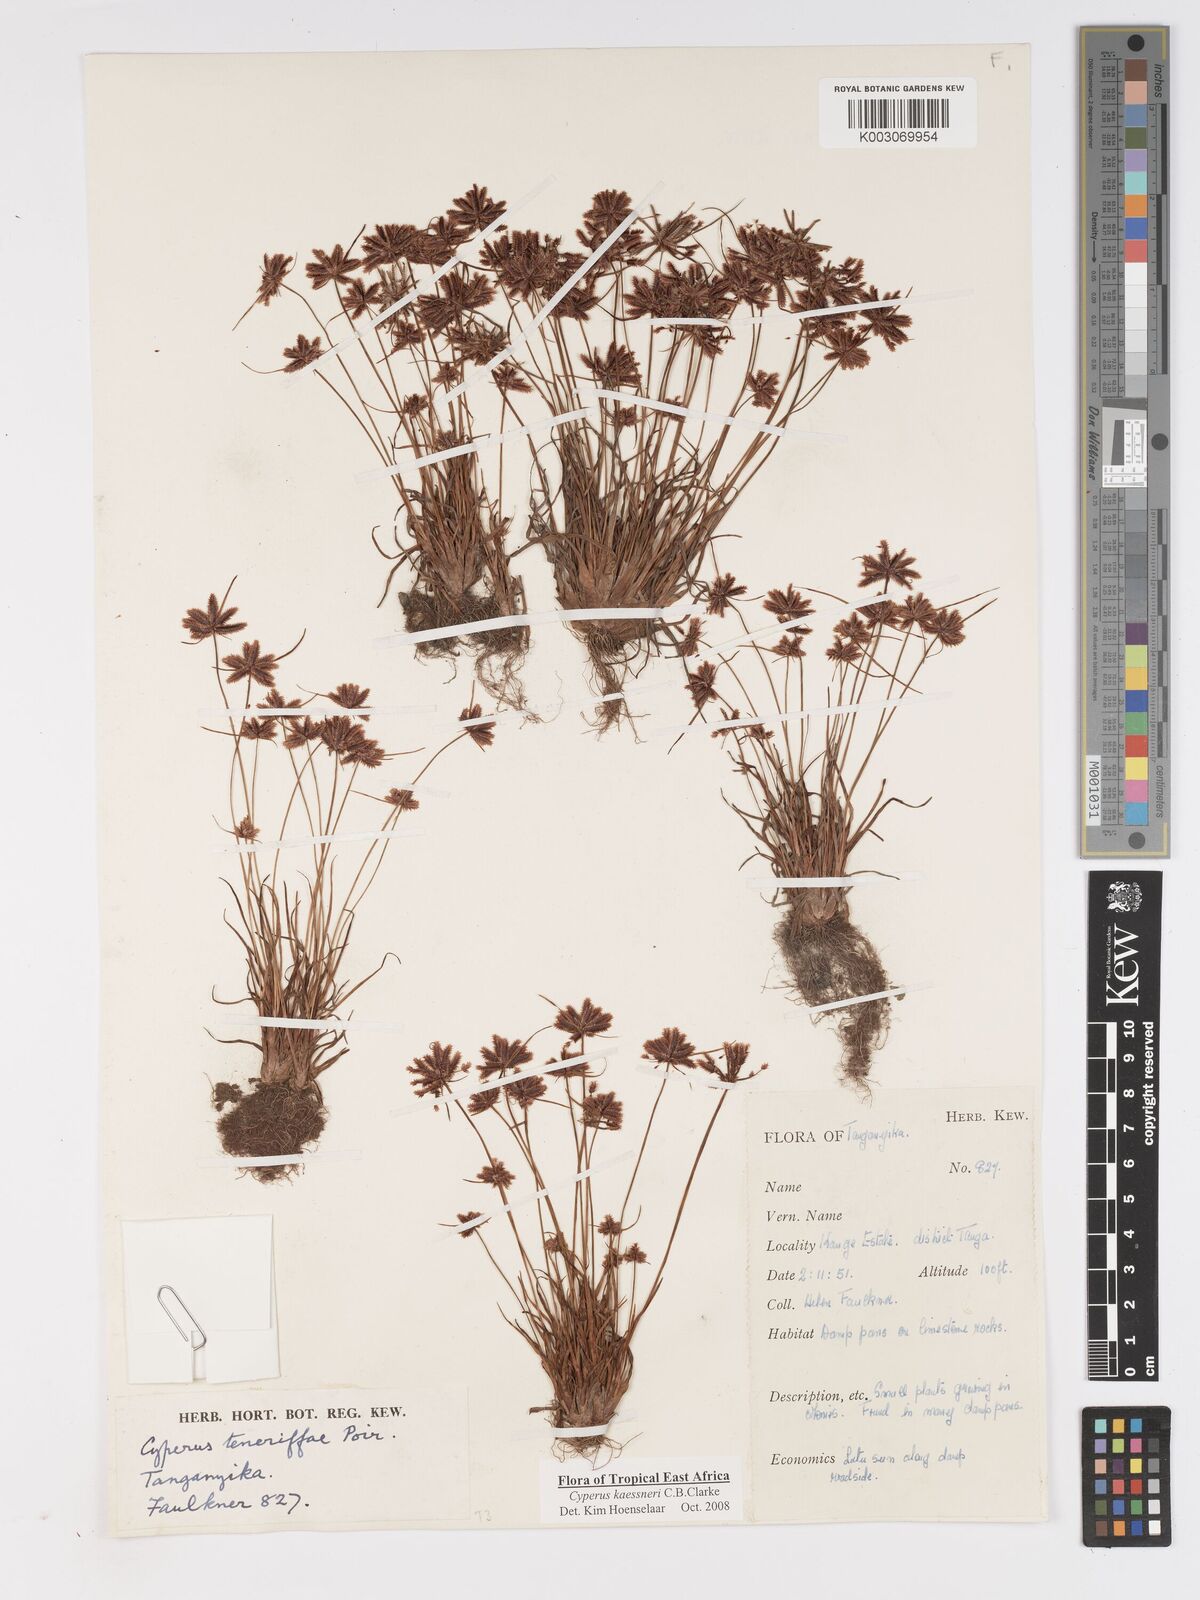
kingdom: Plantae
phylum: Tracheophyta
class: Liliopsida
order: Poales
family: Cyperaceae
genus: Cyperus
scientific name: Cyperus kaessneri
